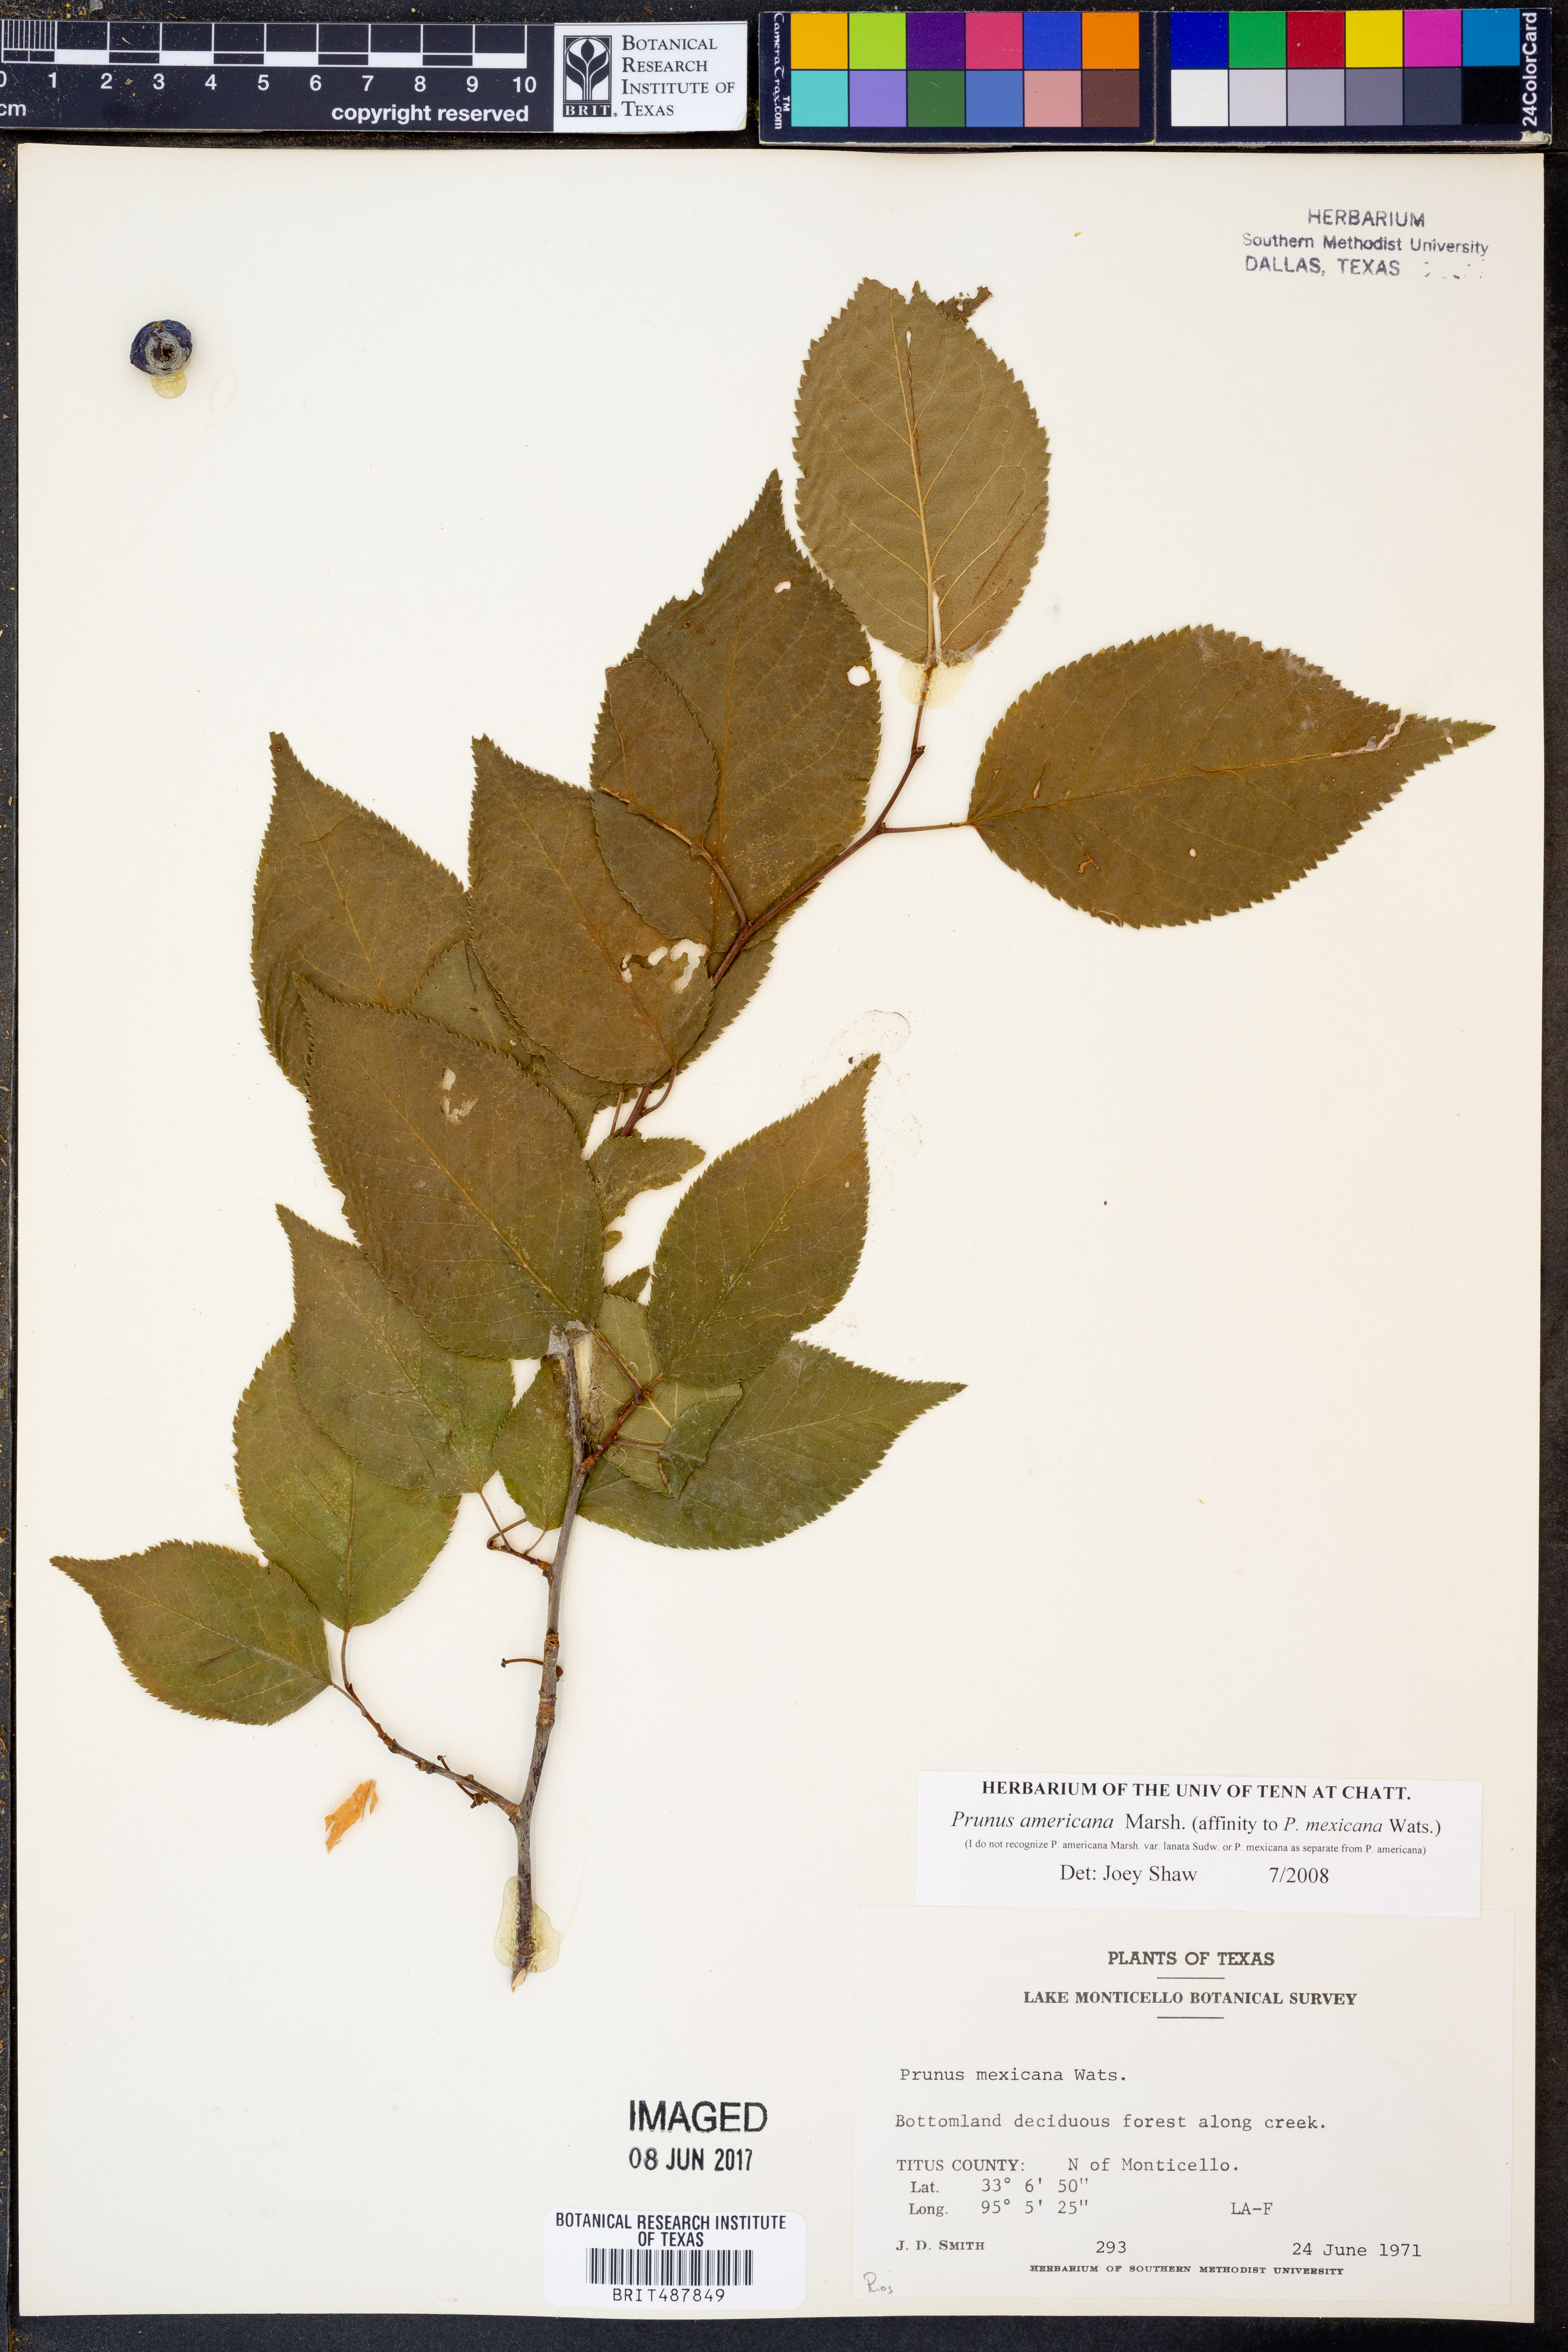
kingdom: Plantae
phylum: Tracheophyta
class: Magnoliopsida
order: Rosales
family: Rosaceae
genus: Prunus
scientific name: Prunus americana
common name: American plum
